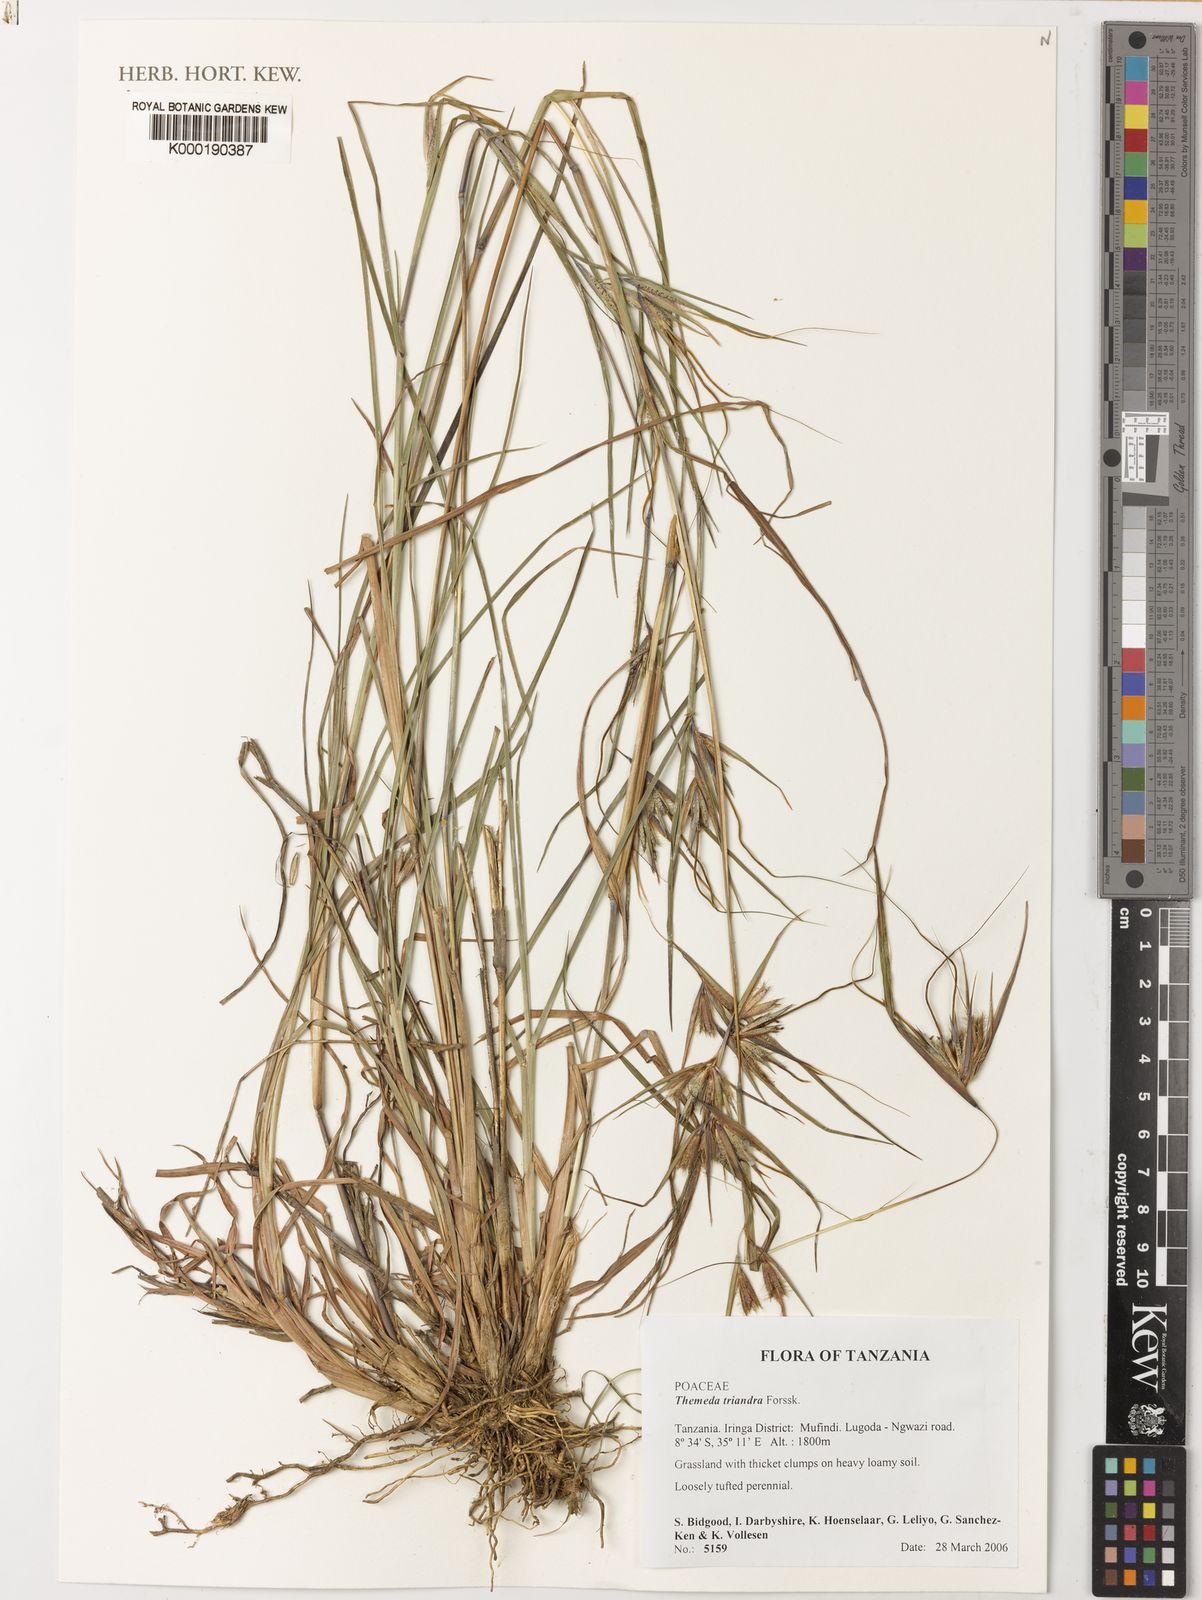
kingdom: Plantae
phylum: Tracheophyta
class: Liliopsida
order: Poales
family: Poaceae
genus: Themeda
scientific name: Themeda triandra
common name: Kangaroo grass
